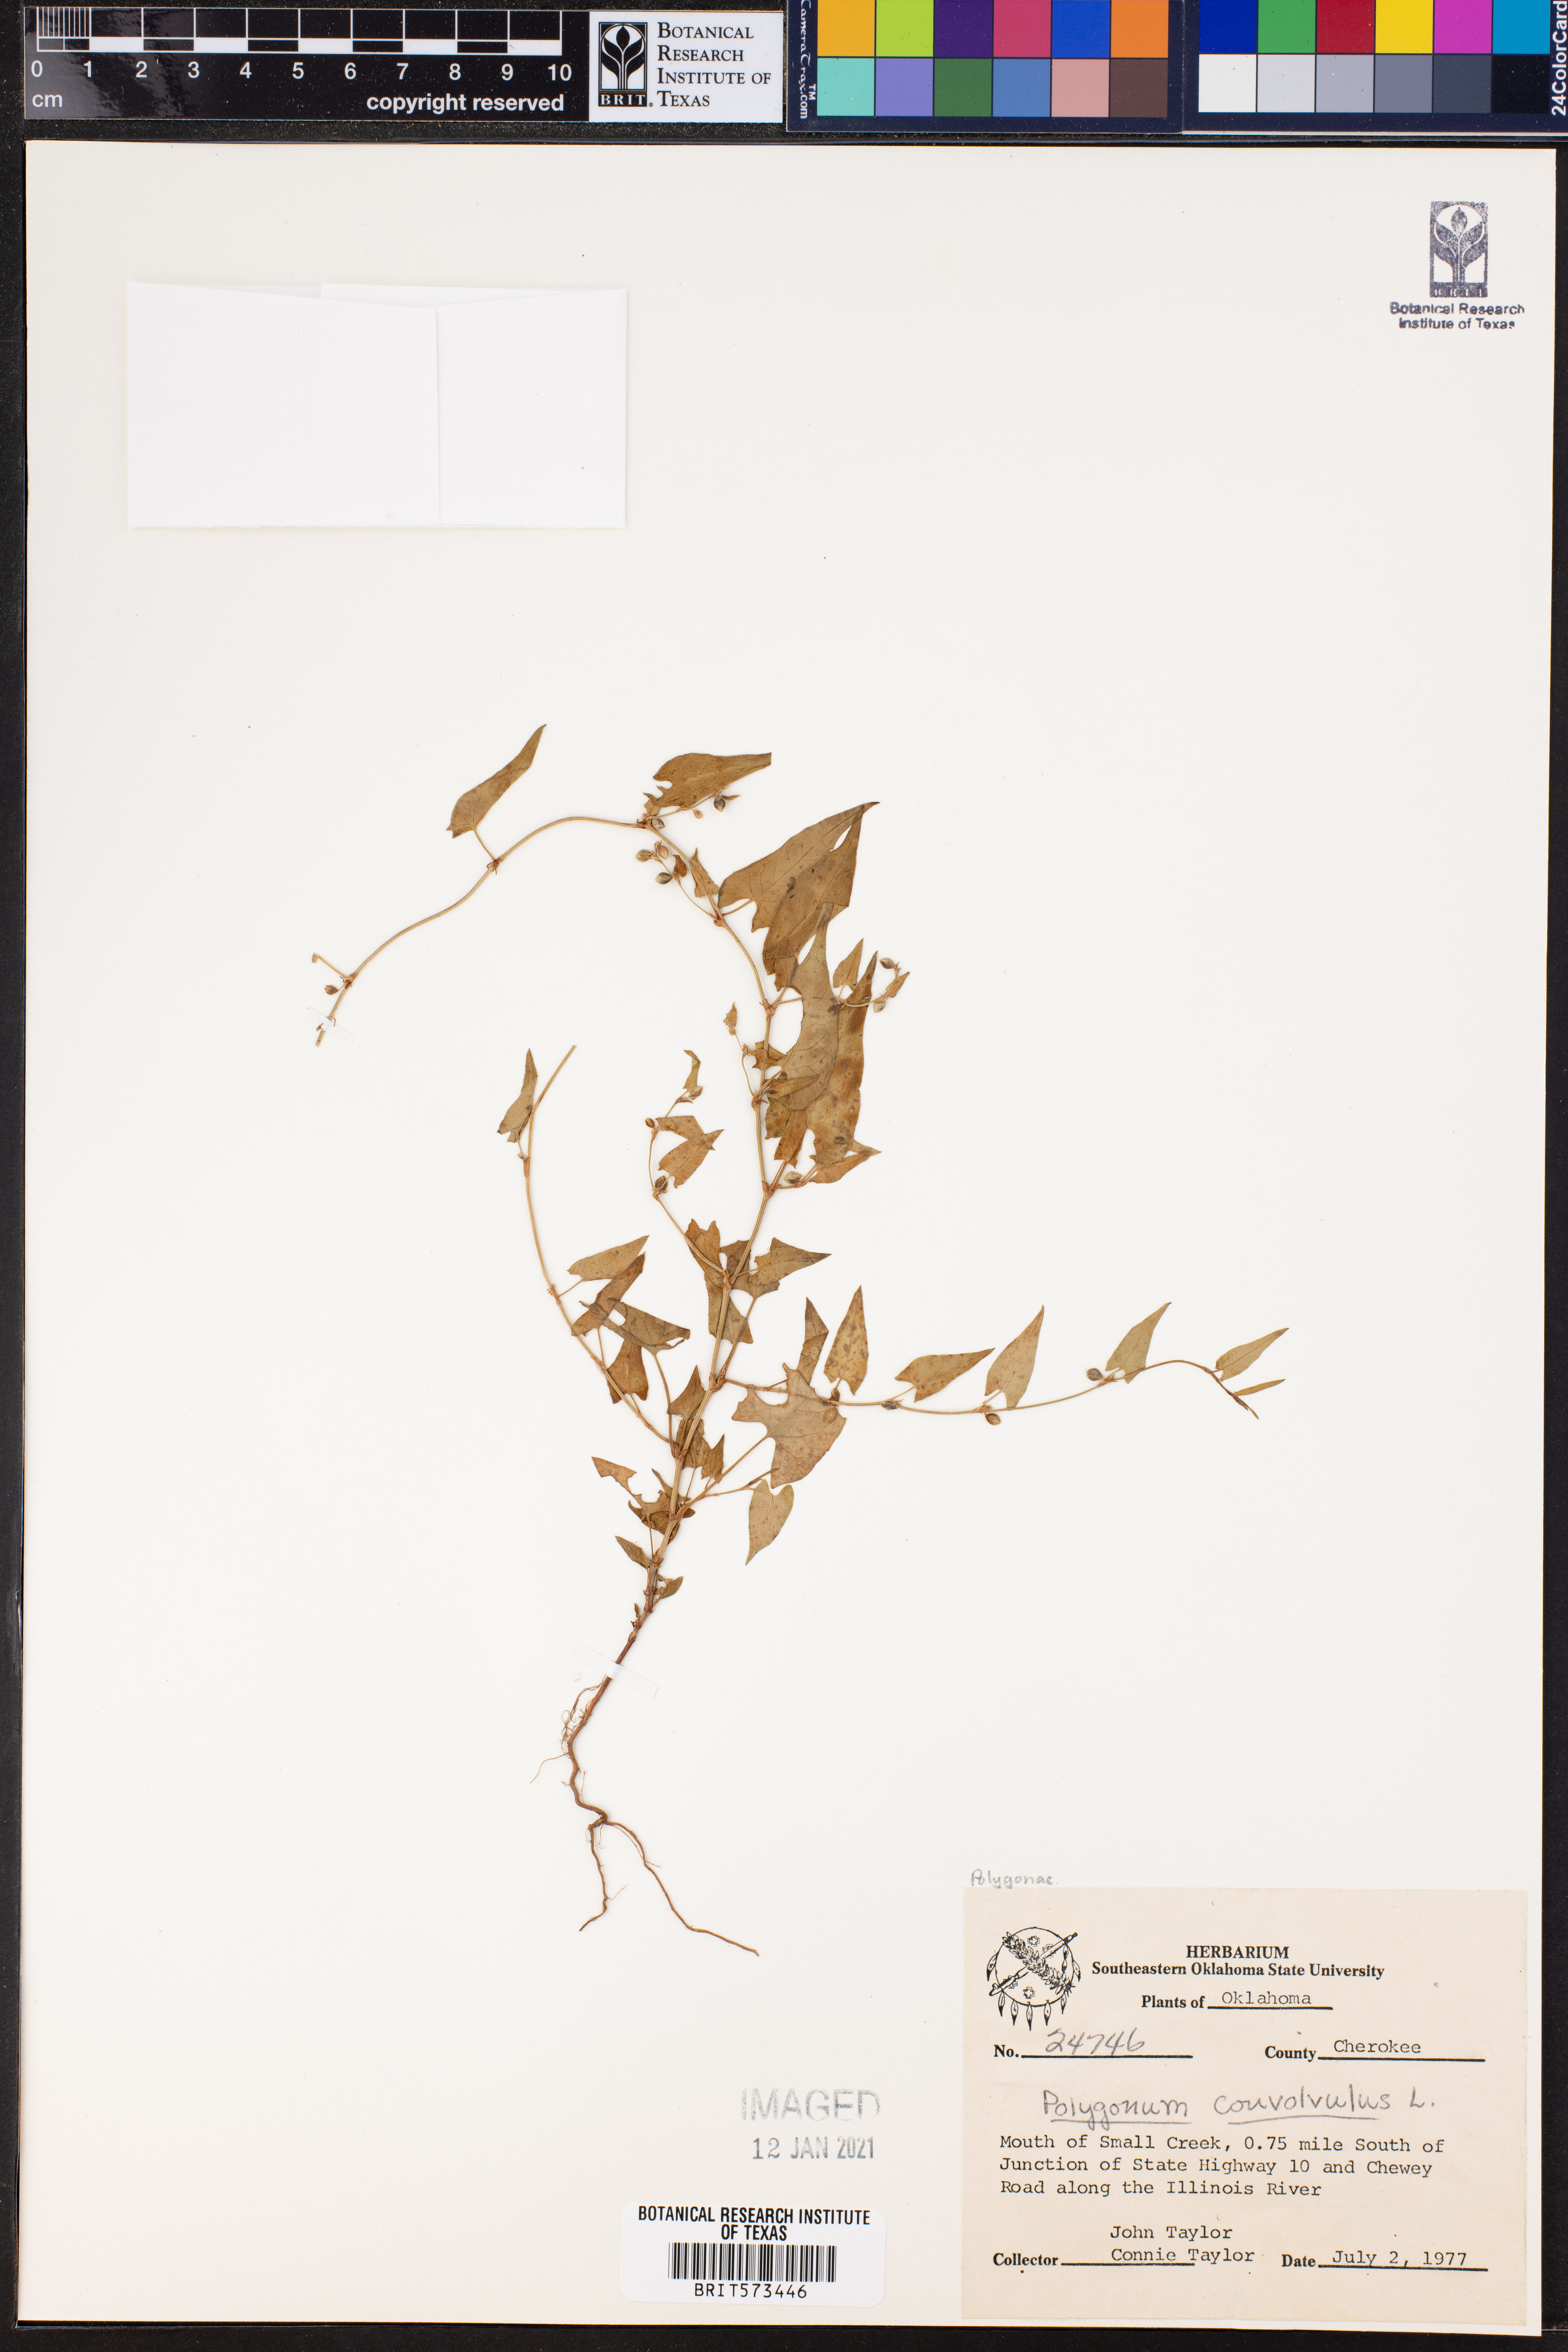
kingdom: Plantae
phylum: Tracheophyta
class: Magnoliopsida
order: Caryophyllales
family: Polygonaceae
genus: Fallopia
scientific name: Fallopia convolvulus
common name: Black bindweed
